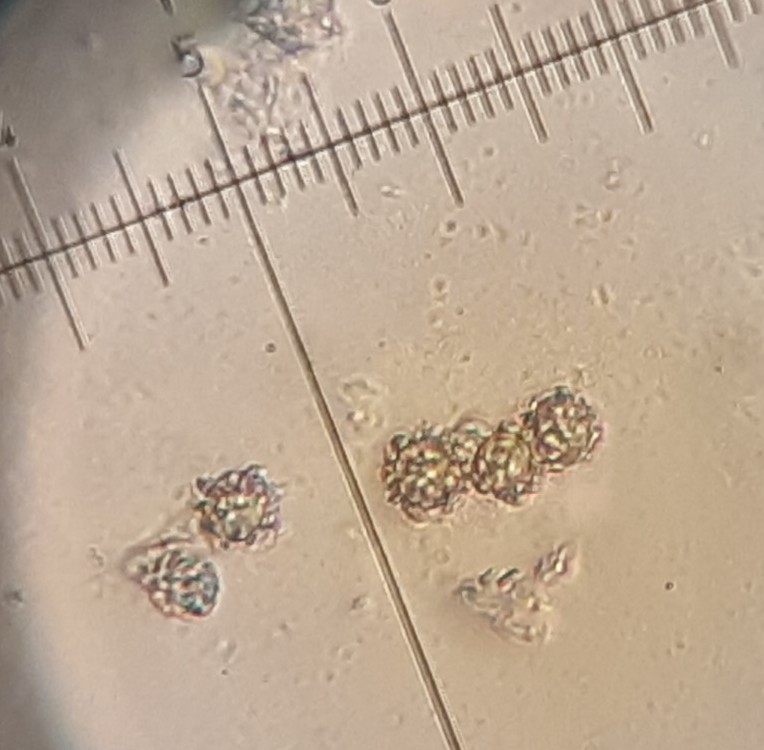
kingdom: Fungi
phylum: Basidiomycota
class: Agaricomycetes
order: Russulales
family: Russulaceae
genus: Lactarius
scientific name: Lactarius romagnesii
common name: fjernbladet mælkehat
